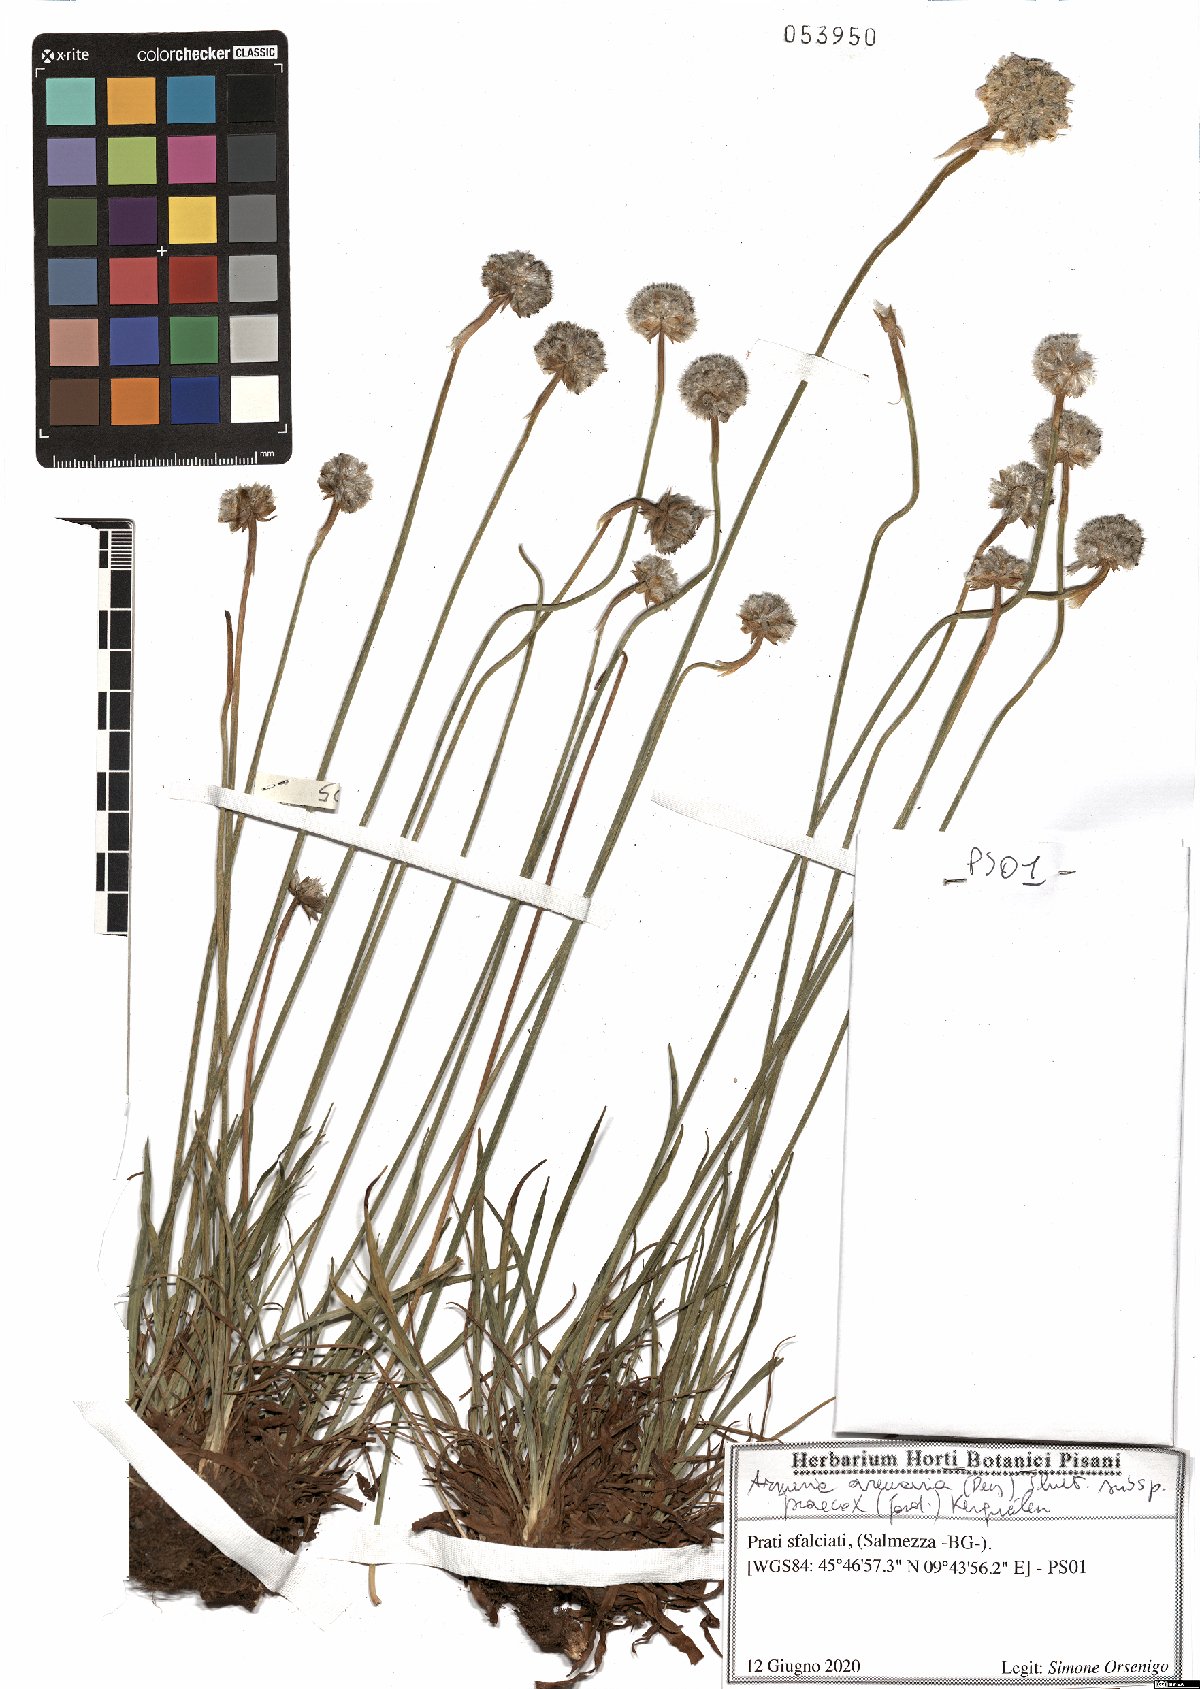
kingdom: Plantae
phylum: Tracheophyta
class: Magnoliopsida
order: Caryophyllales
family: Plumbaginaceae
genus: Armeria
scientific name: Armeria arenaria
